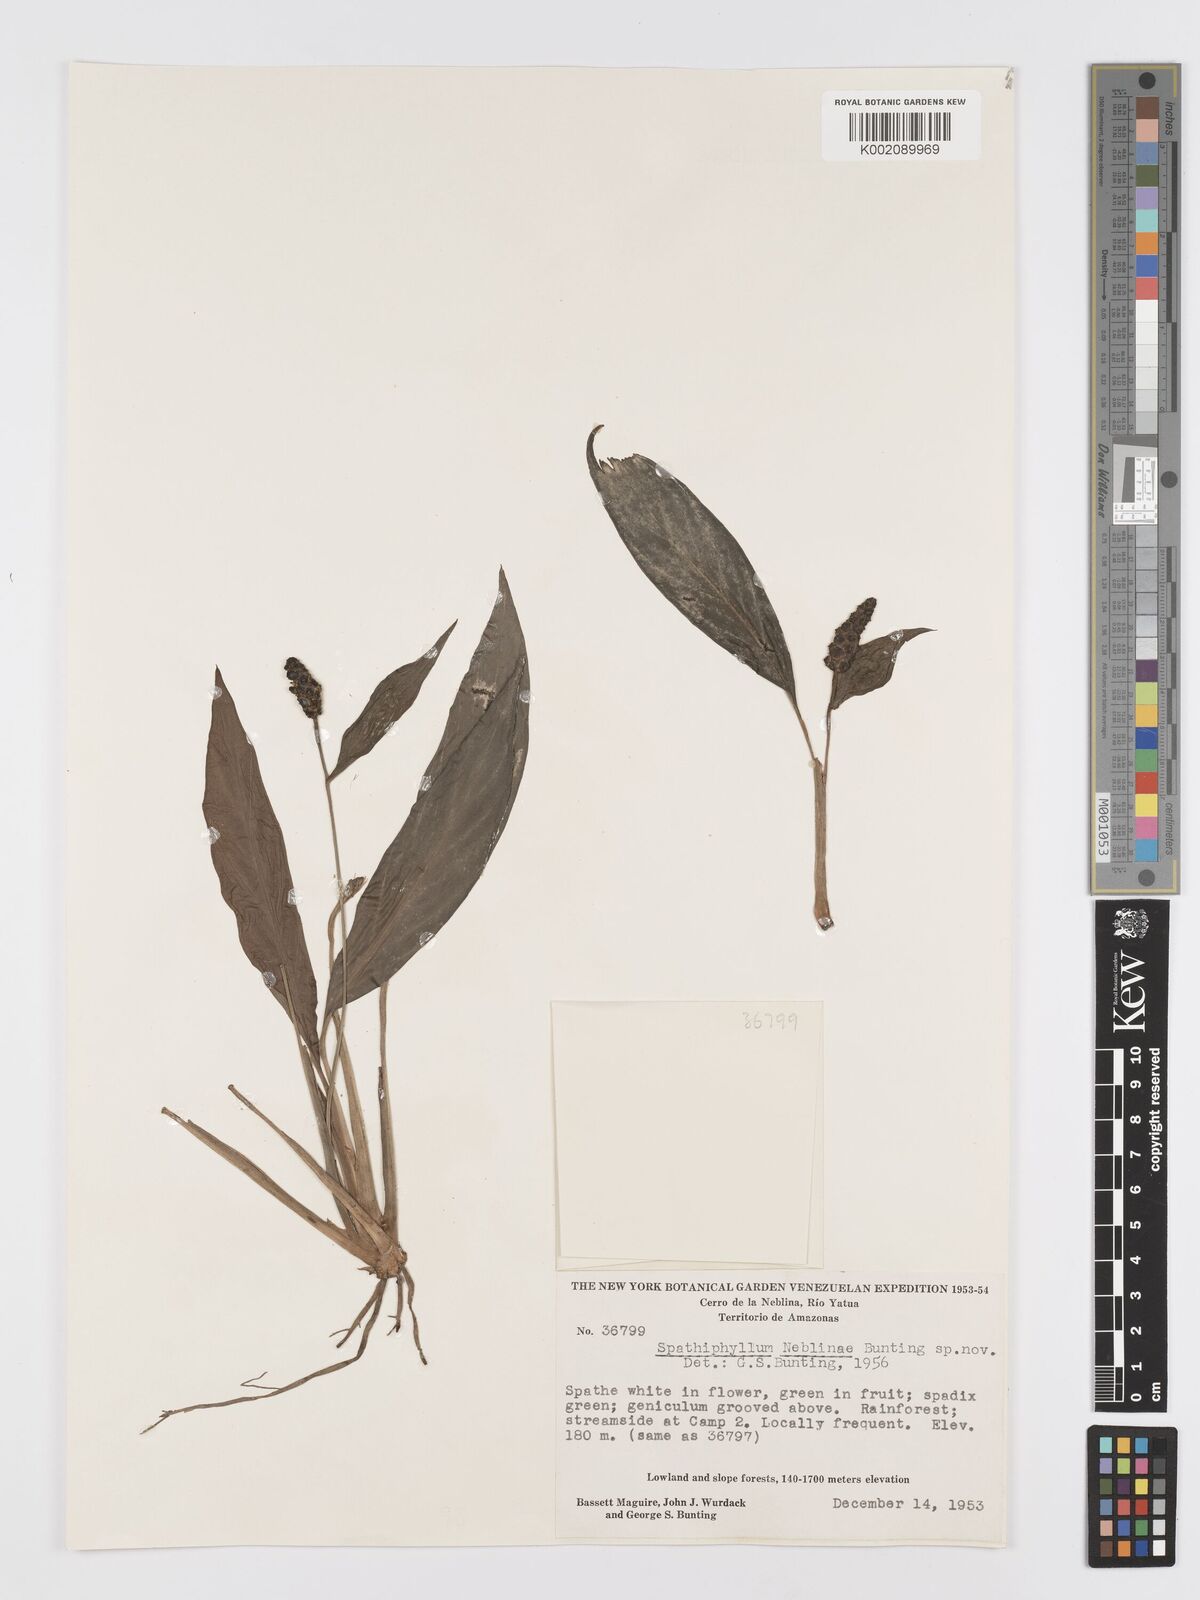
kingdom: Plantae
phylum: Tracheophyta
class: Liliopsida
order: Alismatales
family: Araceae
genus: Spathiphyllum
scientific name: Spathiphyllum neblinae
